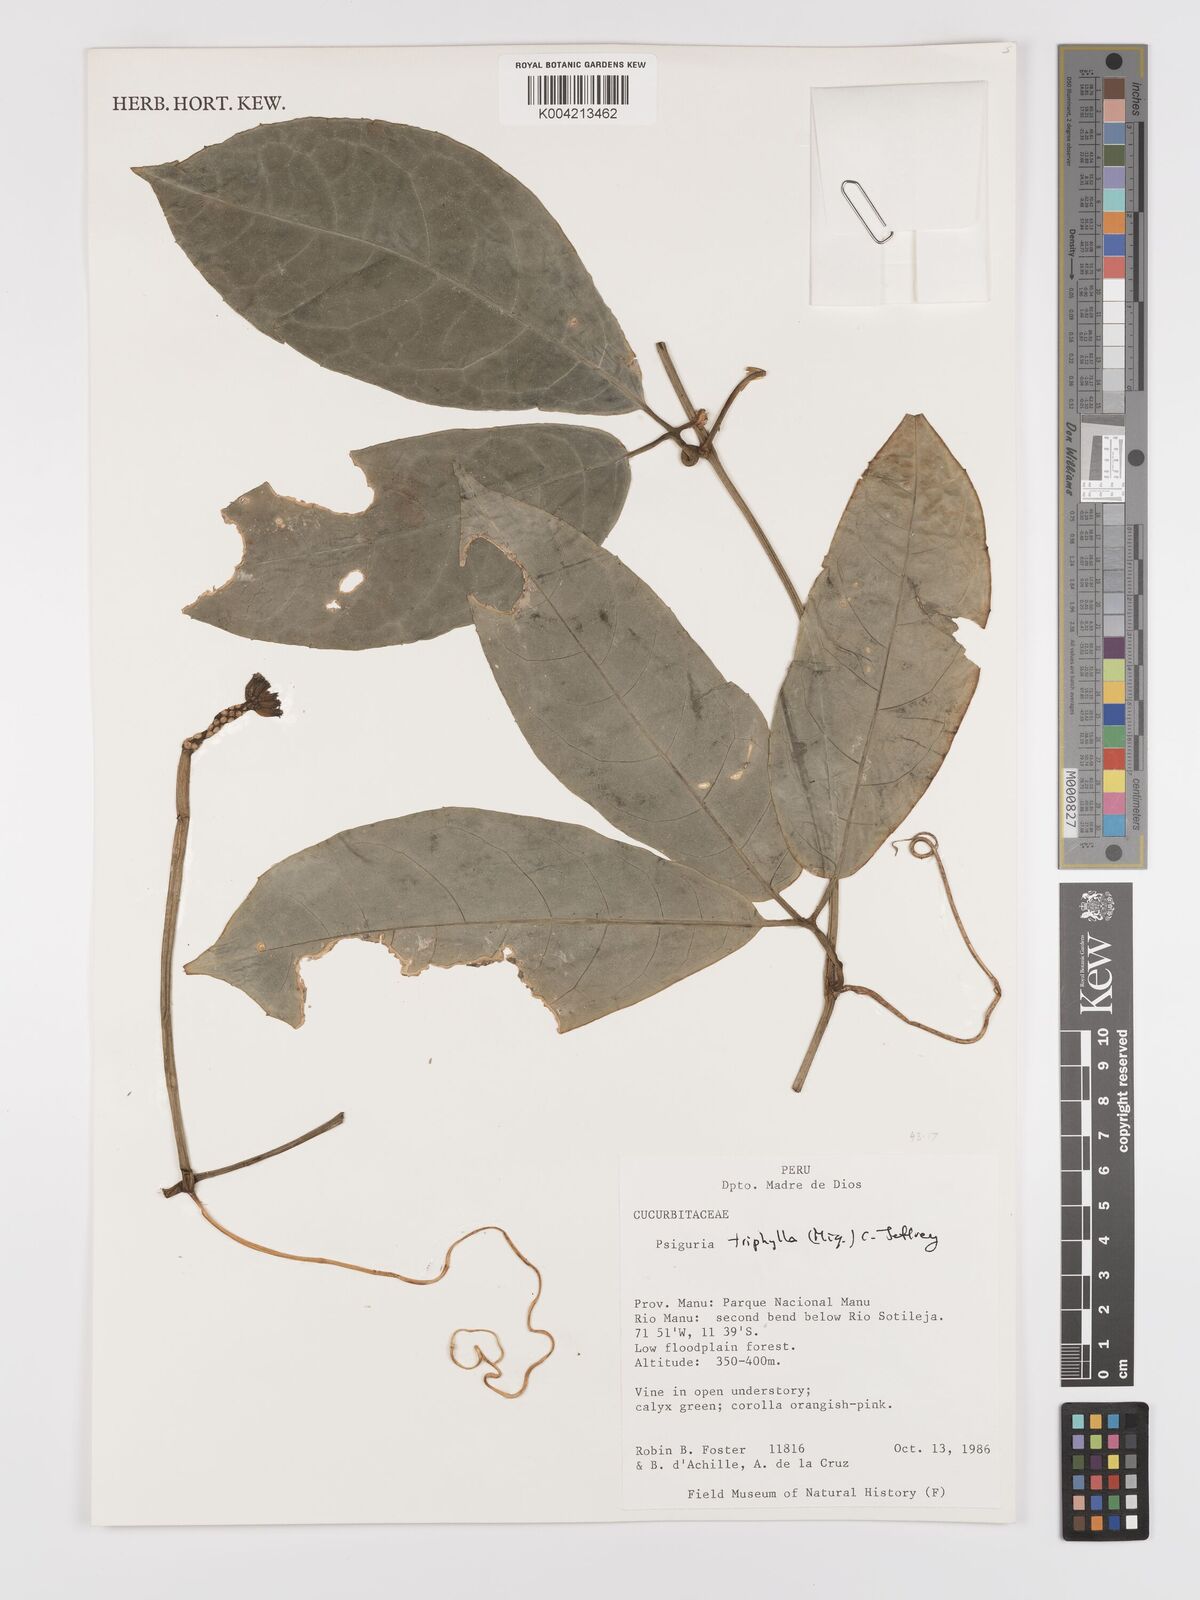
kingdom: Plantae
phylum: Tracheophyta
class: Magnoliopsida
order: Cucurbitales
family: Cucurbitaceae
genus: Psiguria
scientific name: Psiguria triphylla
